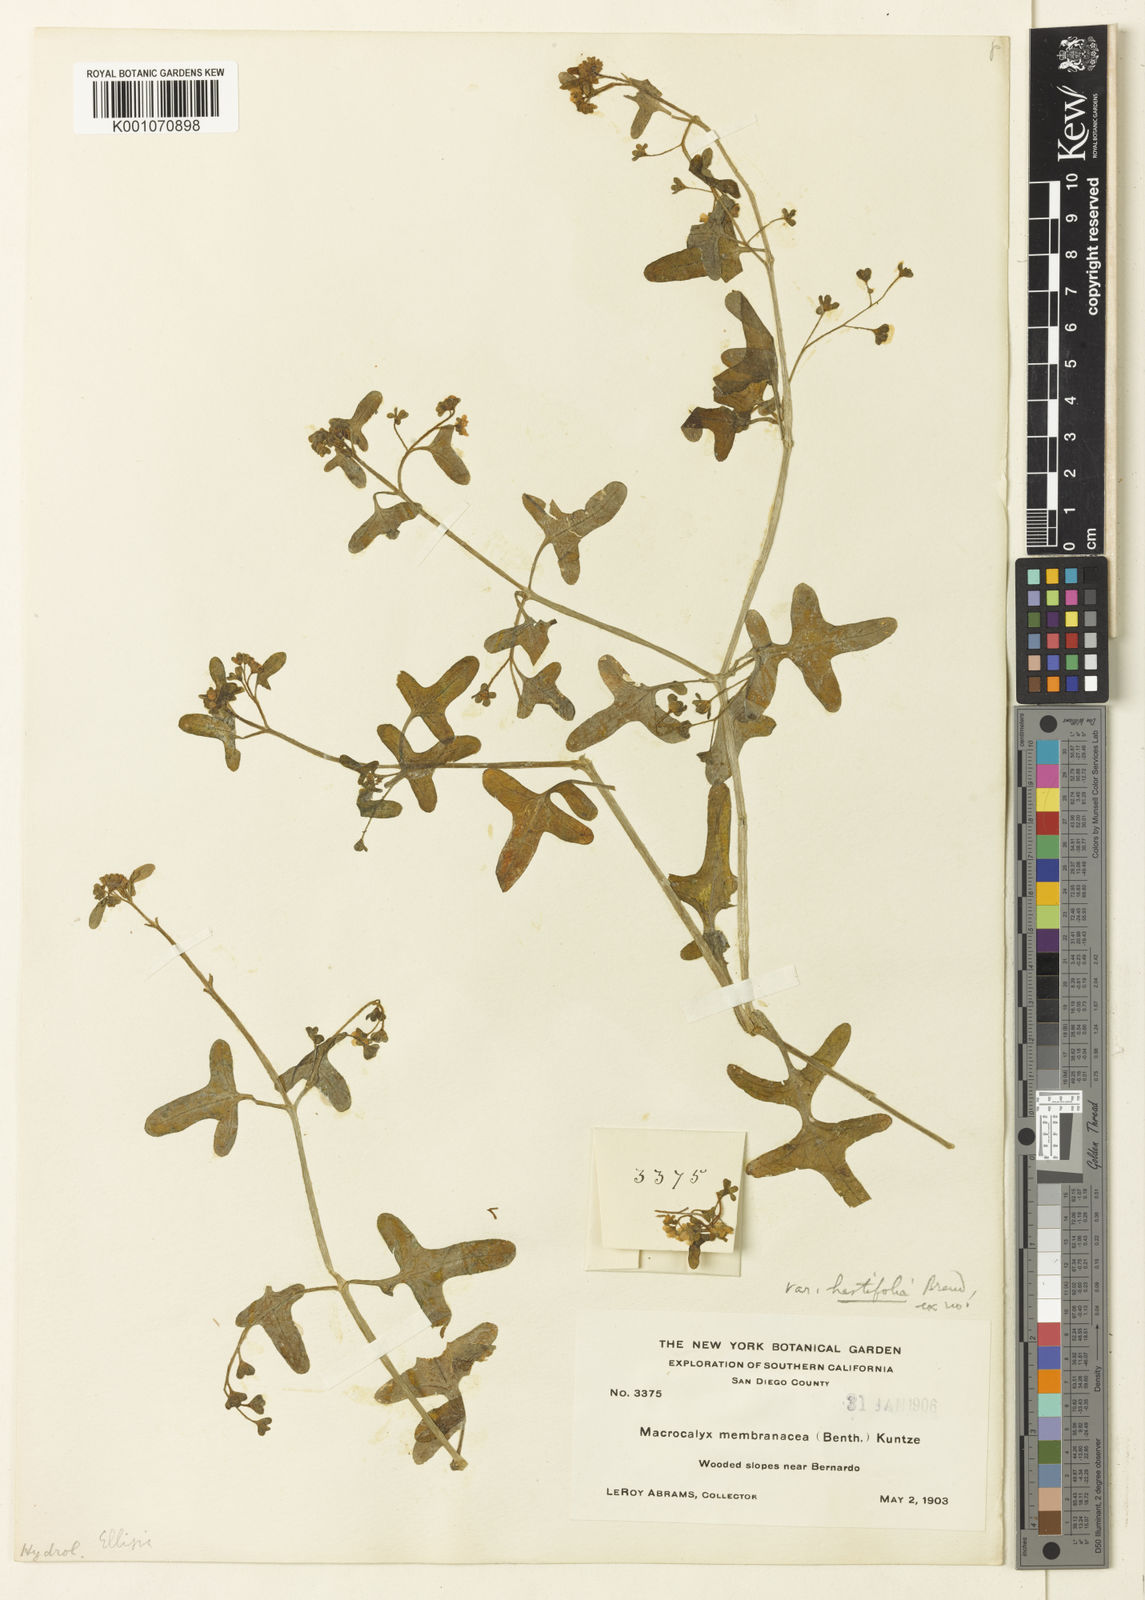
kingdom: Plantae
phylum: Tracheophyta
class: Magnoliopsida
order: Boraginales
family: Hydrophyllaceae
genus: Pholistoma
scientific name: Pholistoma membranaceum
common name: White fiesta-flower
